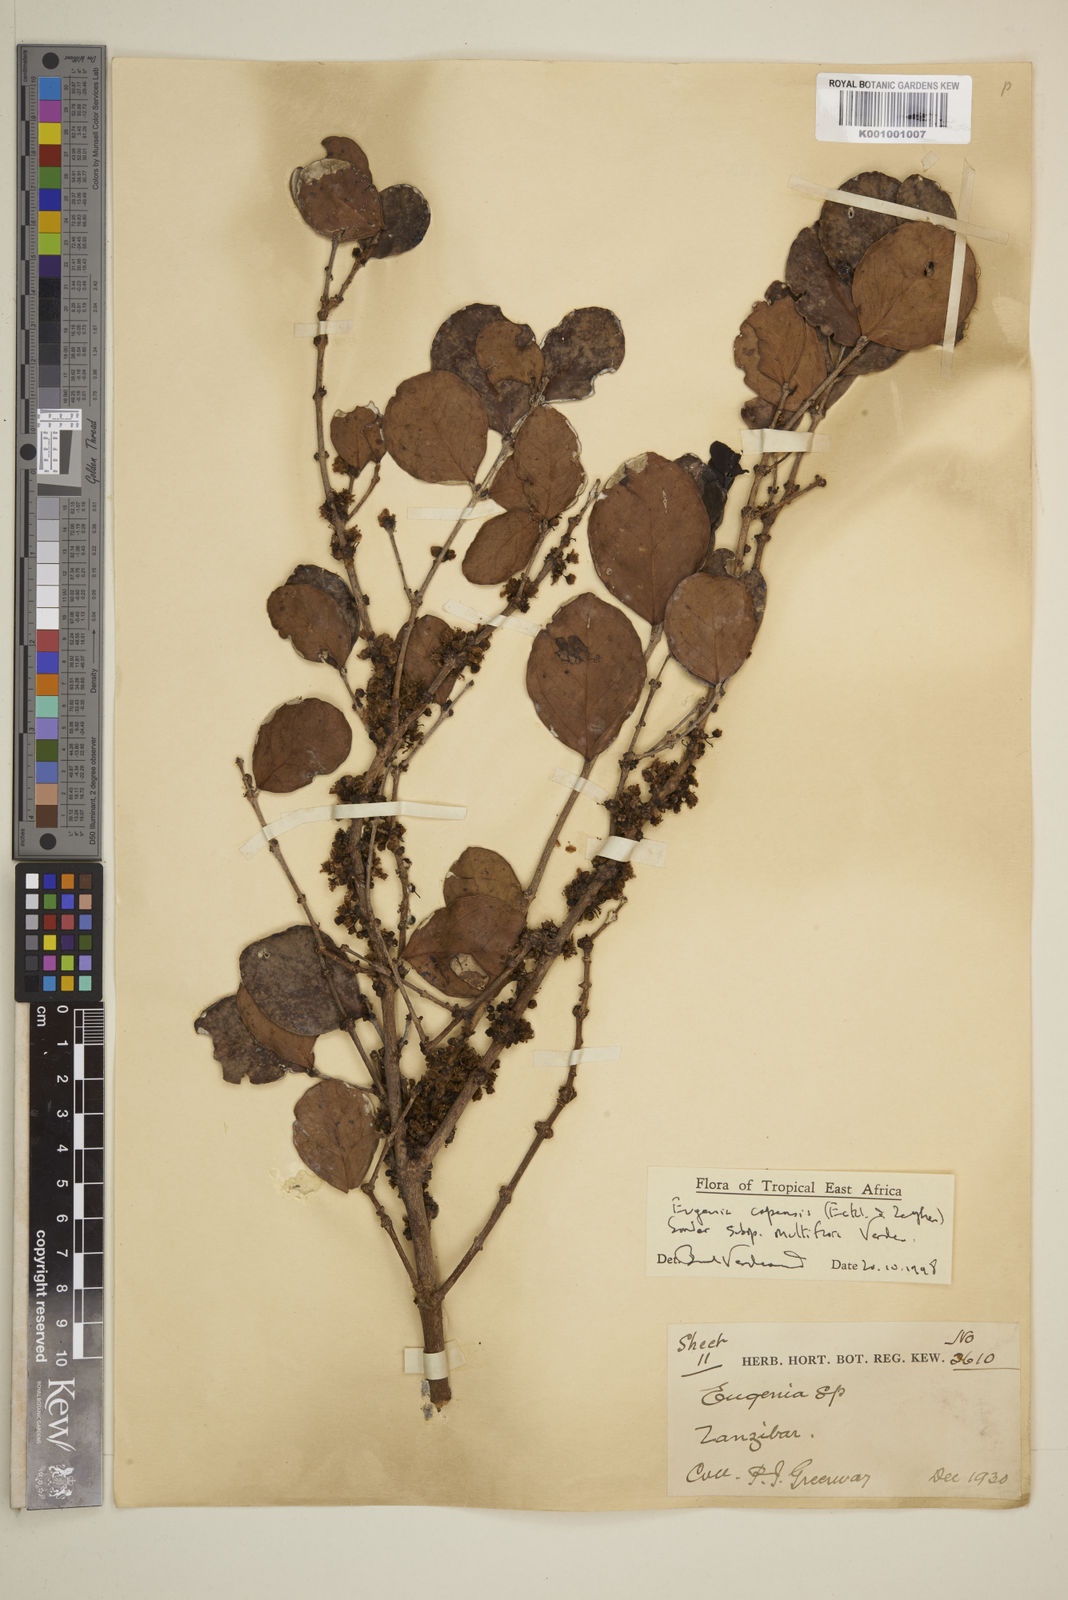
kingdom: Plantae
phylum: Tracheophyta
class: Magnoliopsida
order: Myrtales
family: Myrtaceae
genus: Eugenia
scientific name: Eugenia capensis
